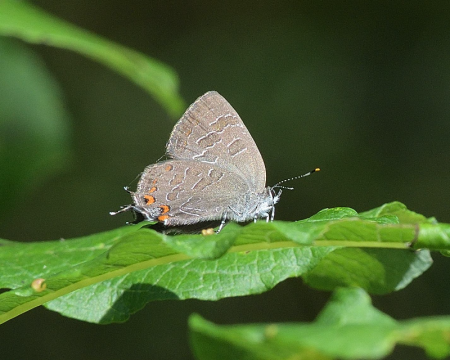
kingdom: Animalia
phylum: Arthropoda
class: Insecta
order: Lepidoptera
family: Lycaenidae
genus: Satyrium
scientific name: Satyrium liparops
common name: Striped Hairstreak
